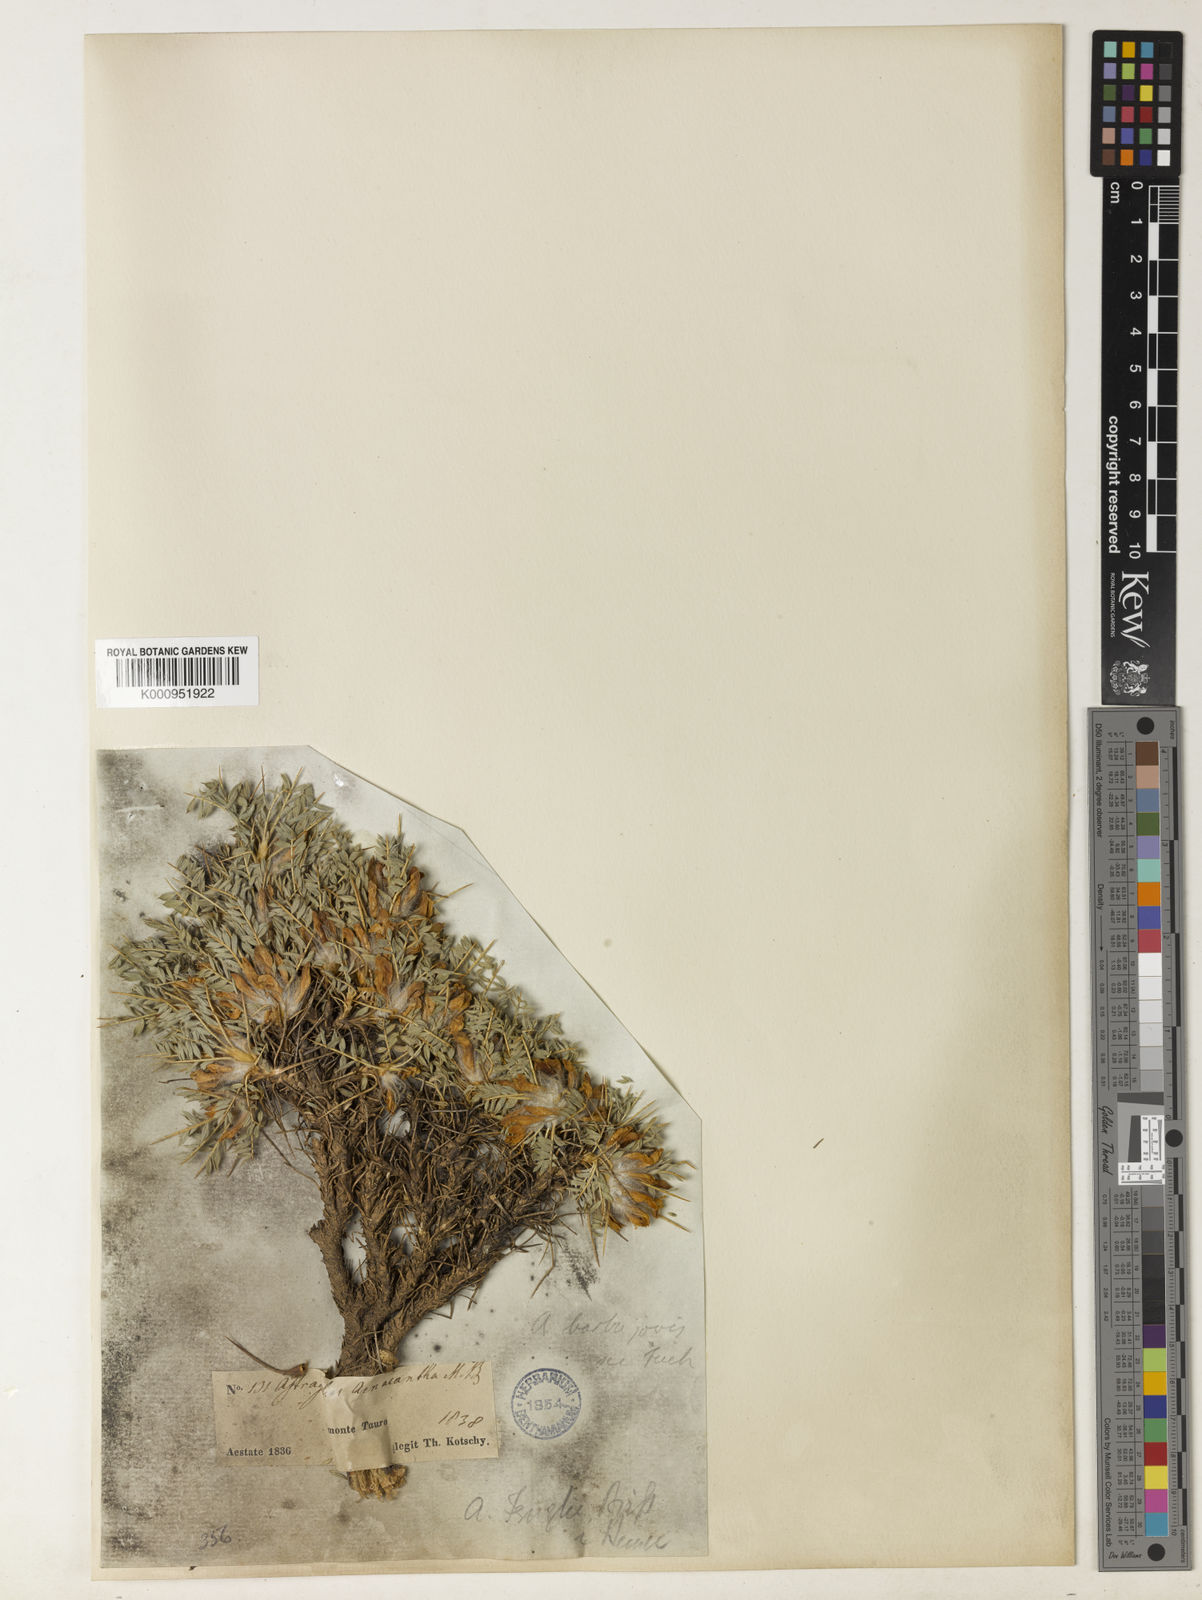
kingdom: Plantae
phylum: Tracheophyta
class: Magnoliopsida
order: Fabales
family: Fabaceae
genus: Astragalus
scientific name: Astragalus plumosus
